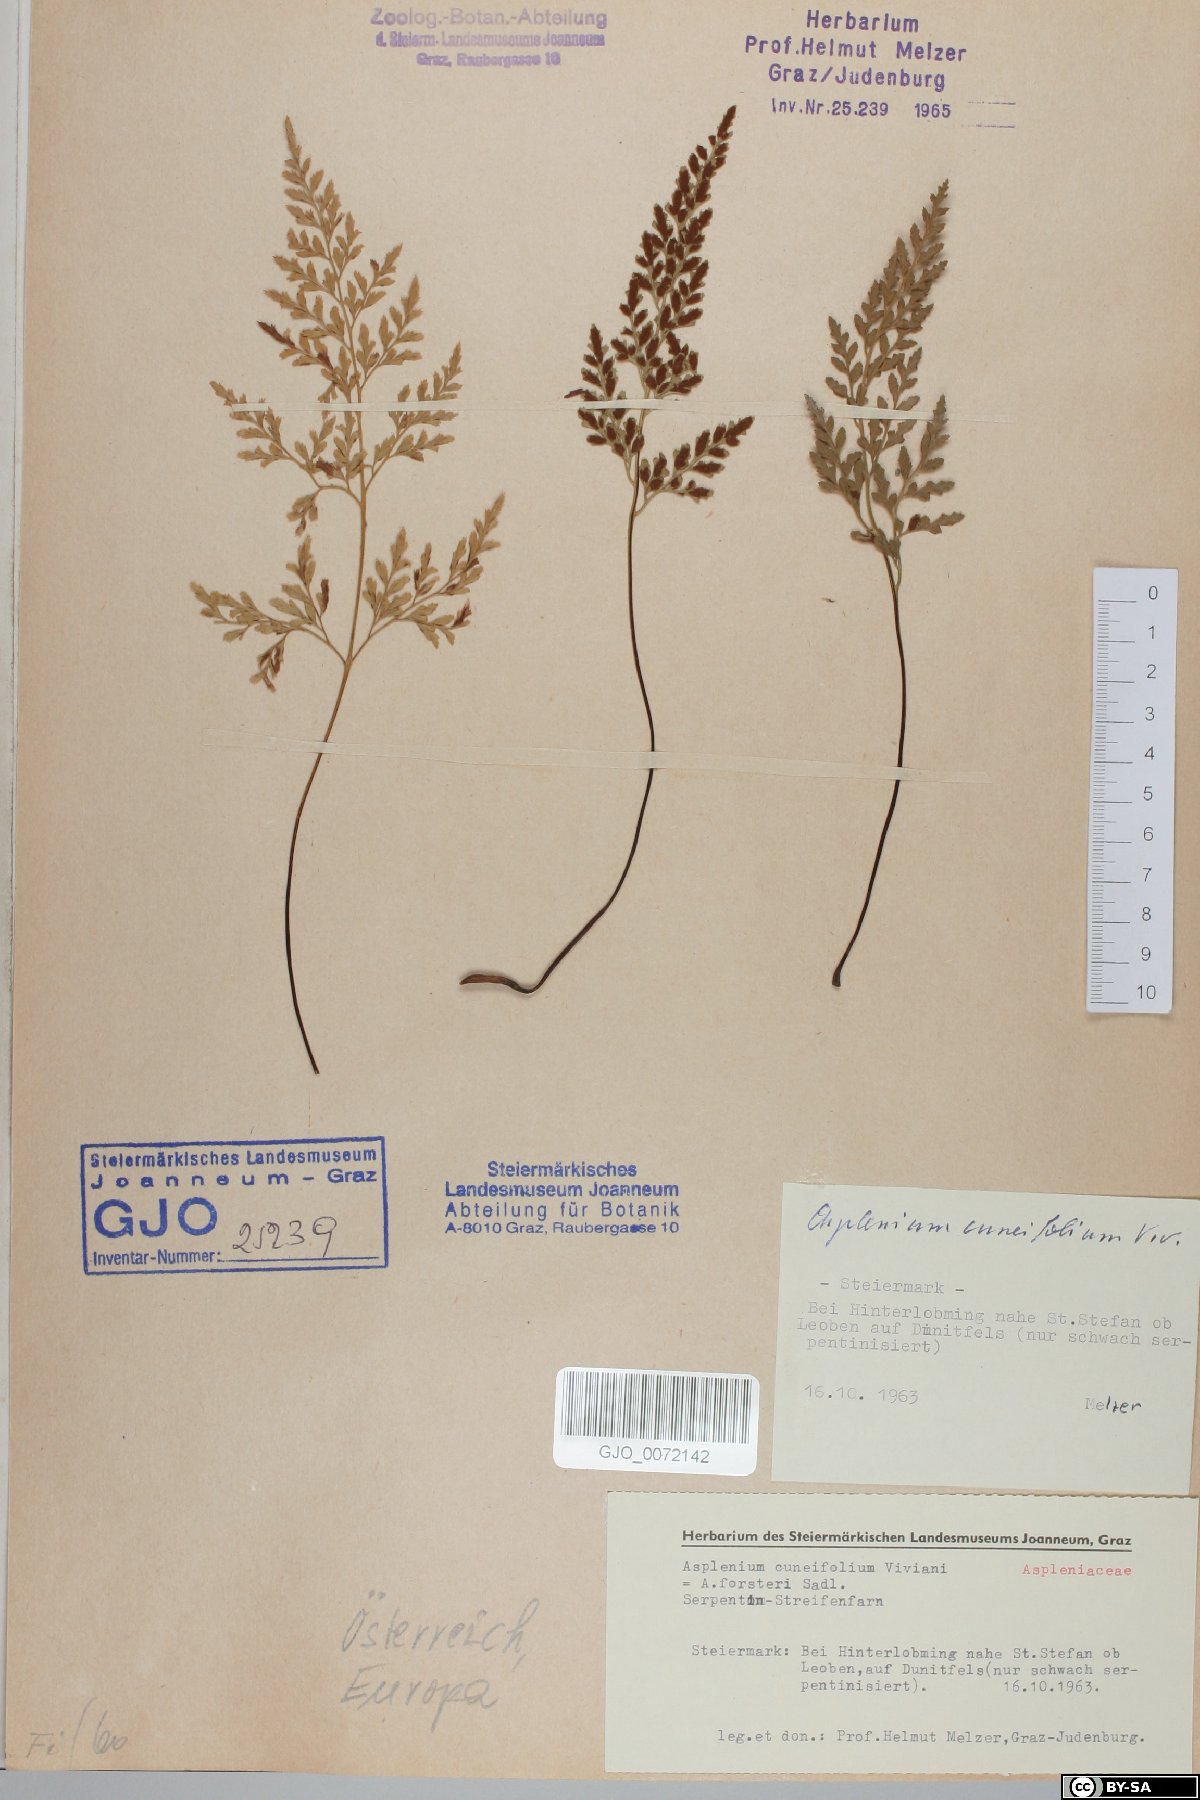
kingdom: Plantae
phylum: Tracheophyta
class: Polypodiopsida
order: Polypodiales
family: Aspleniaceae
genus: Asplenium
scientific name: Asplenium cuneifolium
